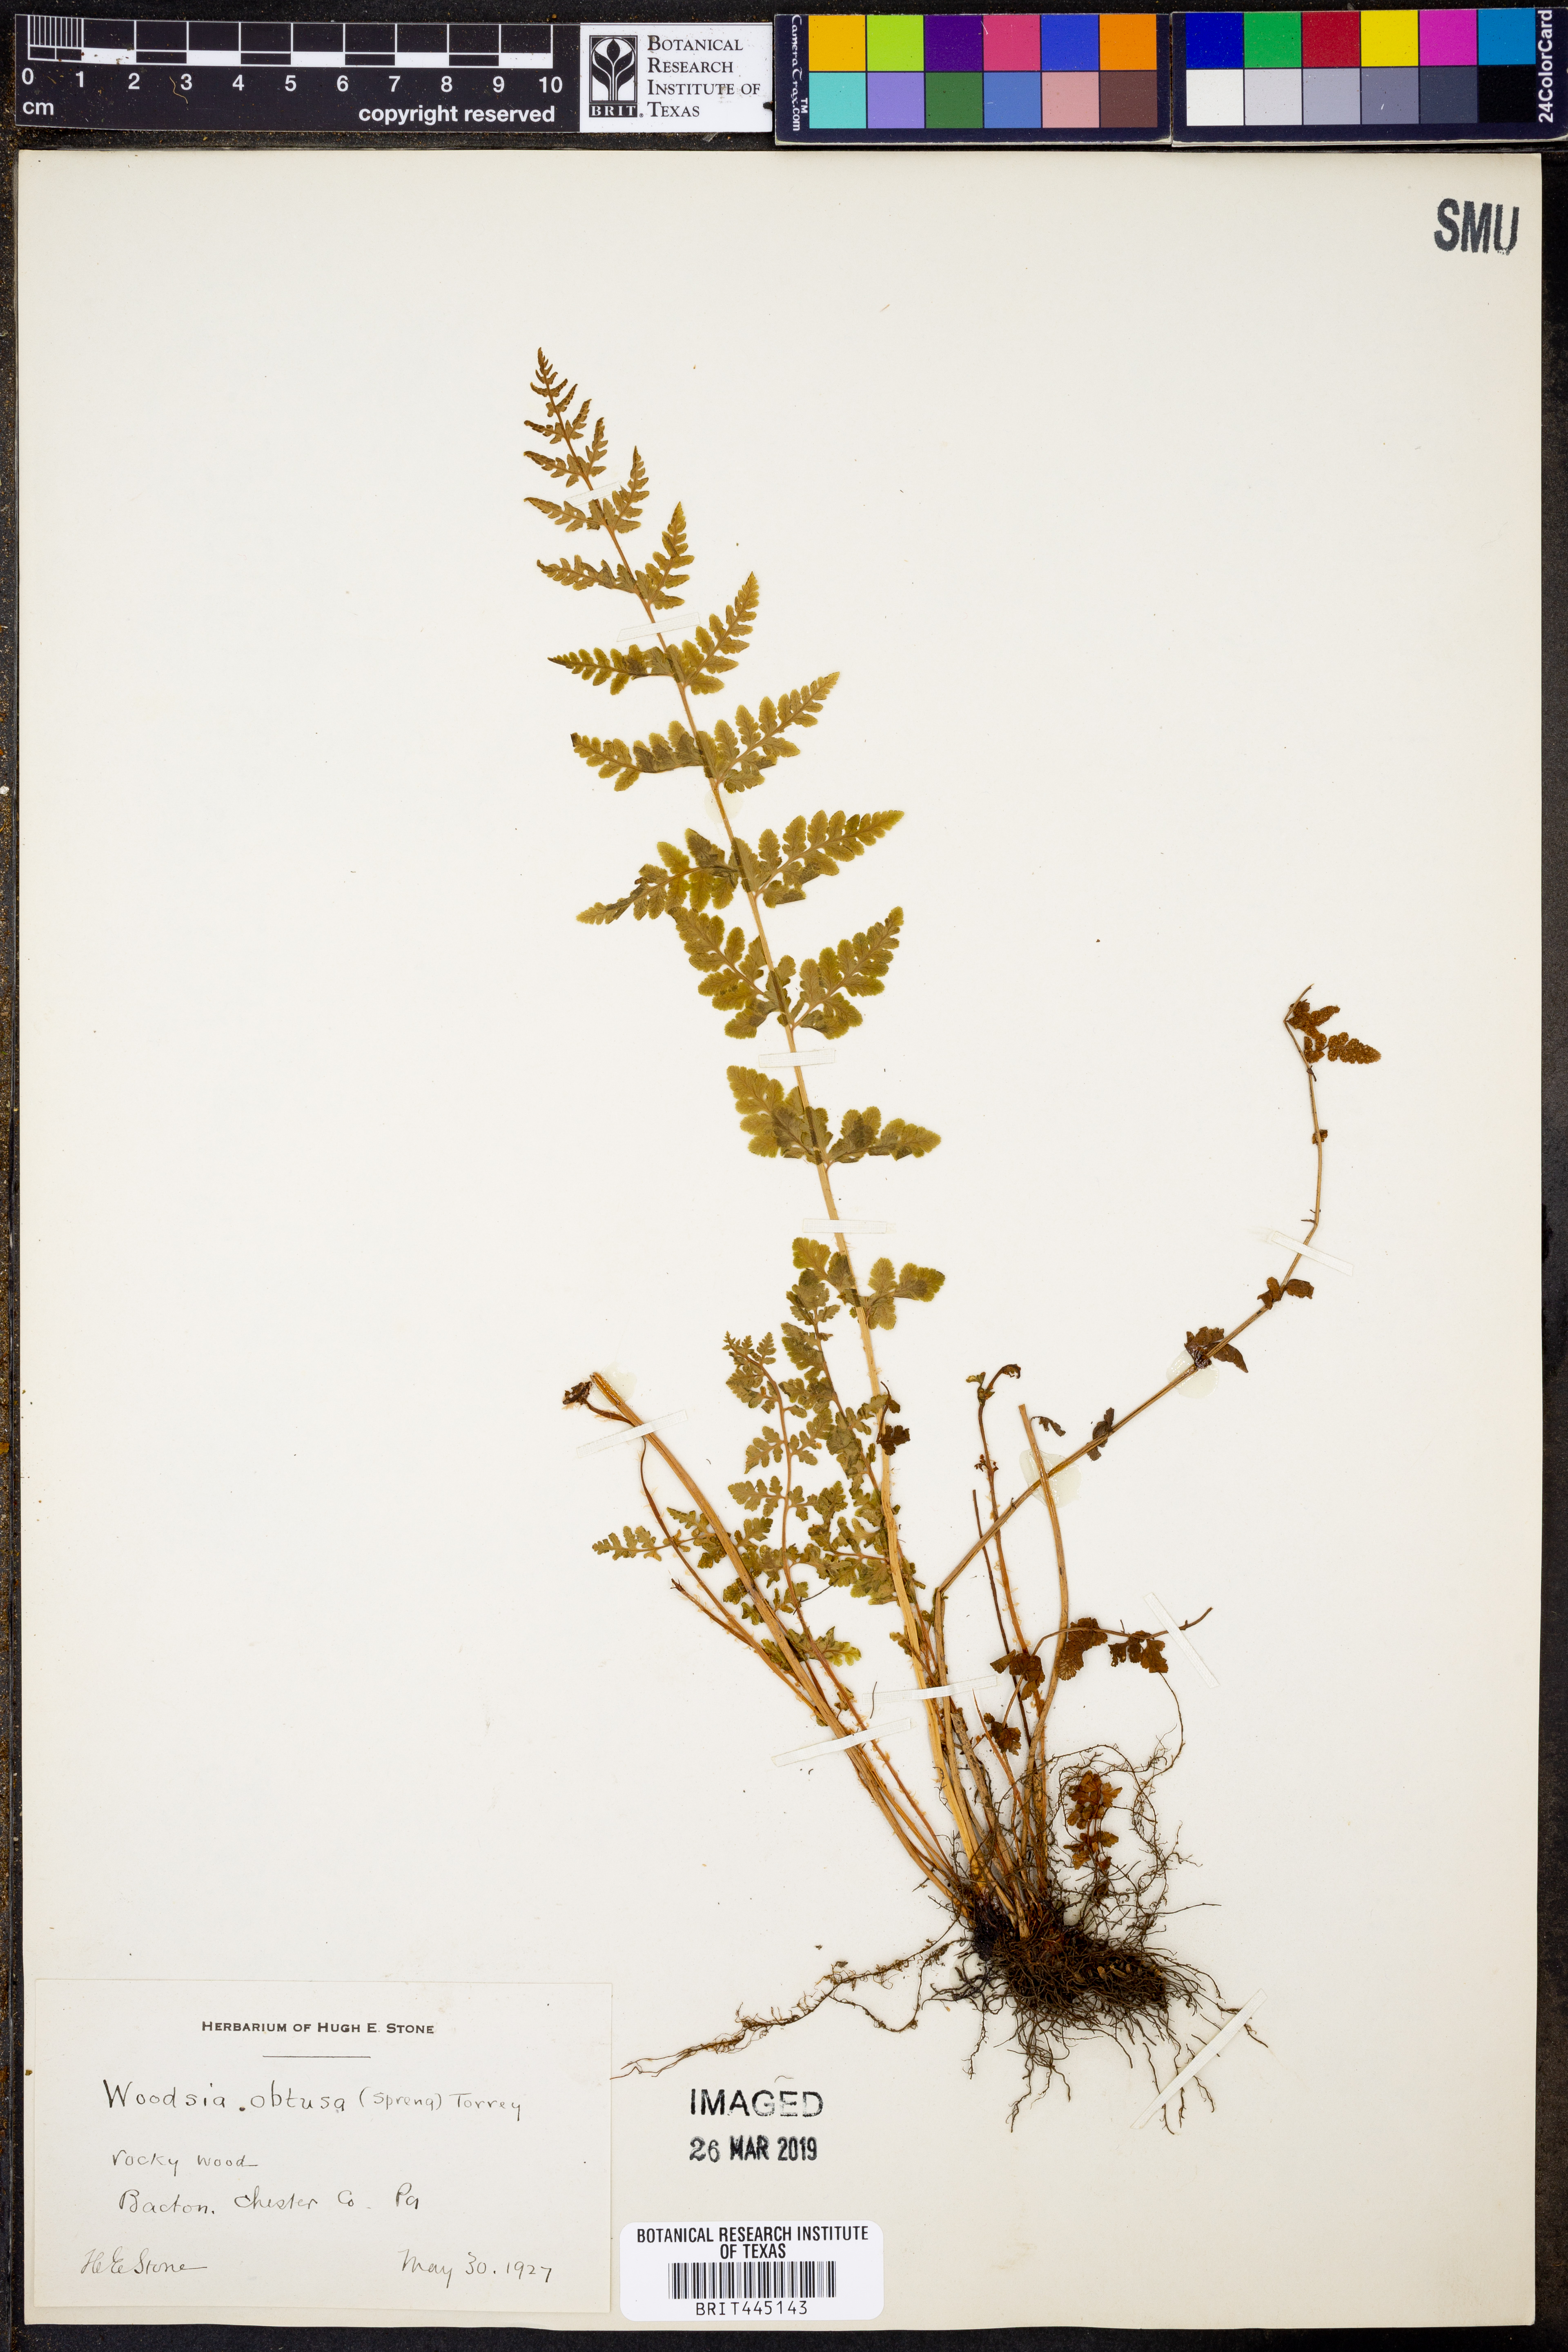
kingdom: Plantae
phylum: Tracheophyta
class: Polypodiopsida
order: Polypodiales
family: Woodsiaceae
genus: Physematium
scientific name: Physematium obtusum
